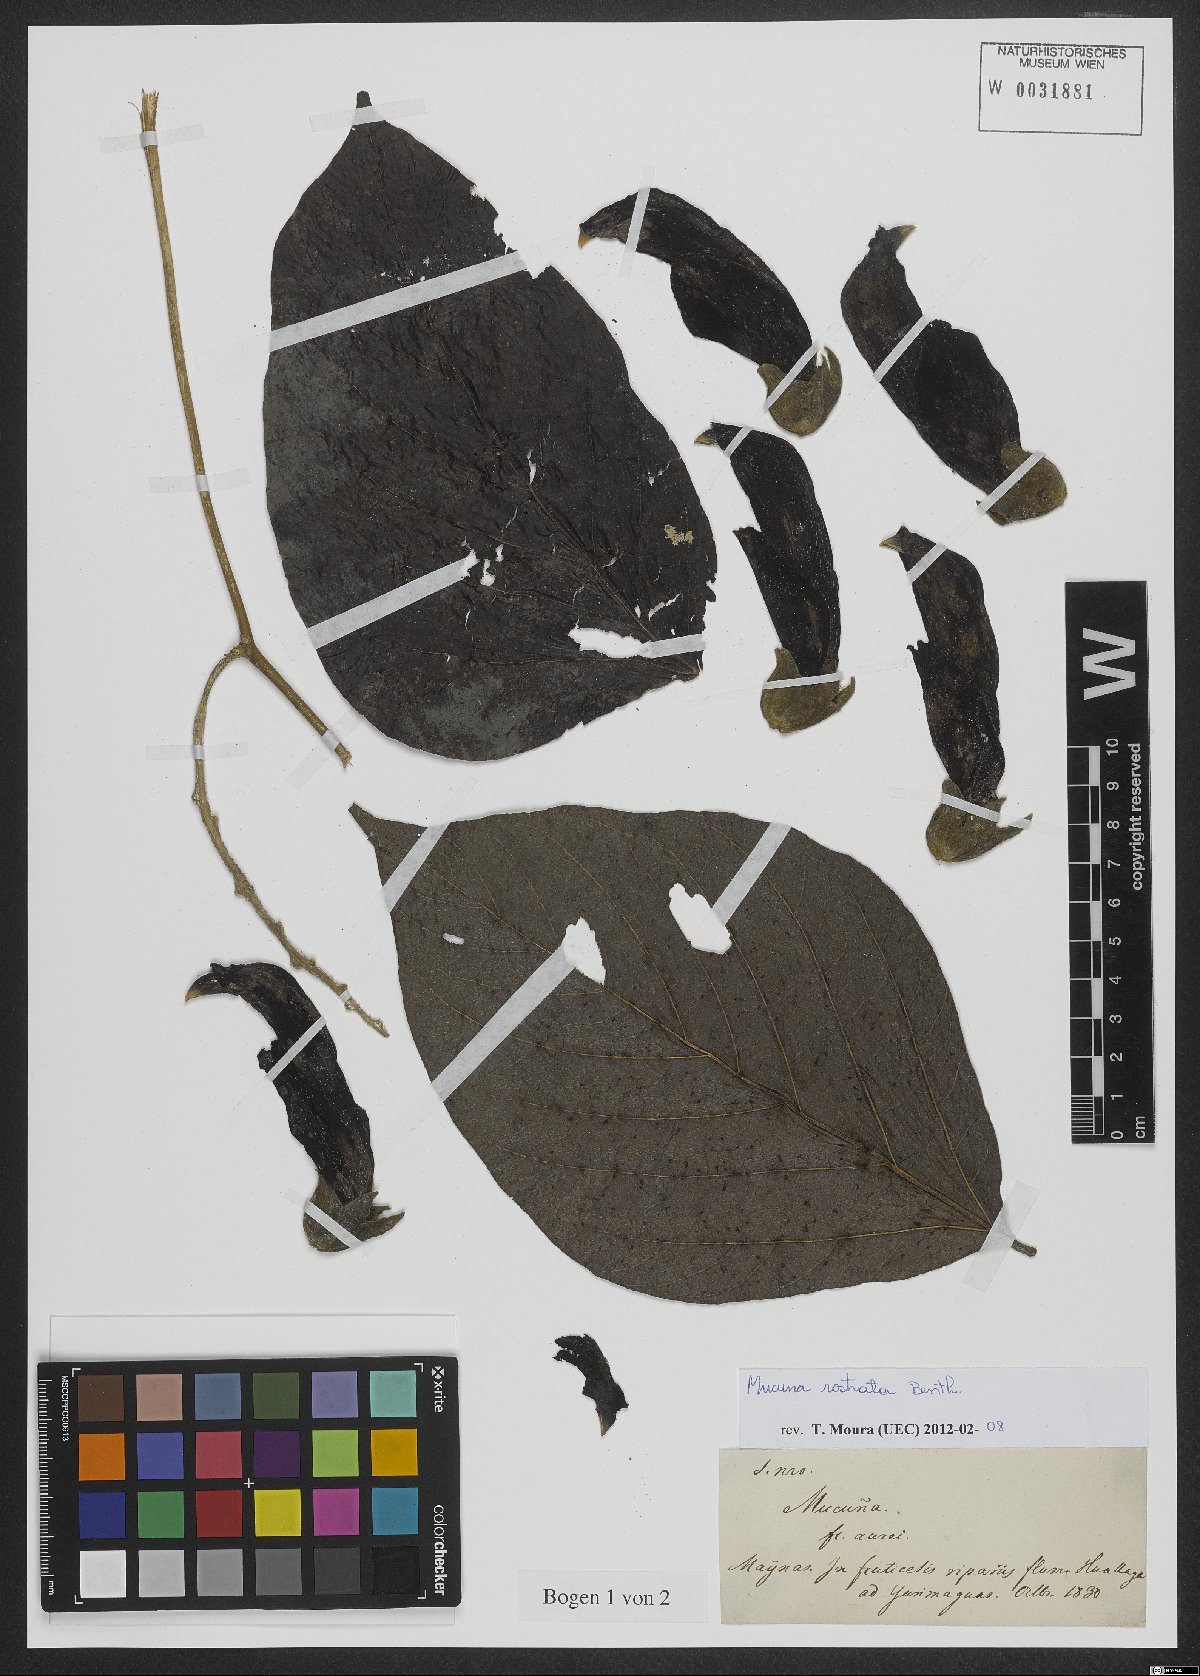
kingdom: Plantae
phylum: Tracheophyta
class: Magnoliopsida
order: Fabales
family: Fabaceae
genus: Mucuna
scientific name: Mucuna sloanei
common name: Horse-eye bean
